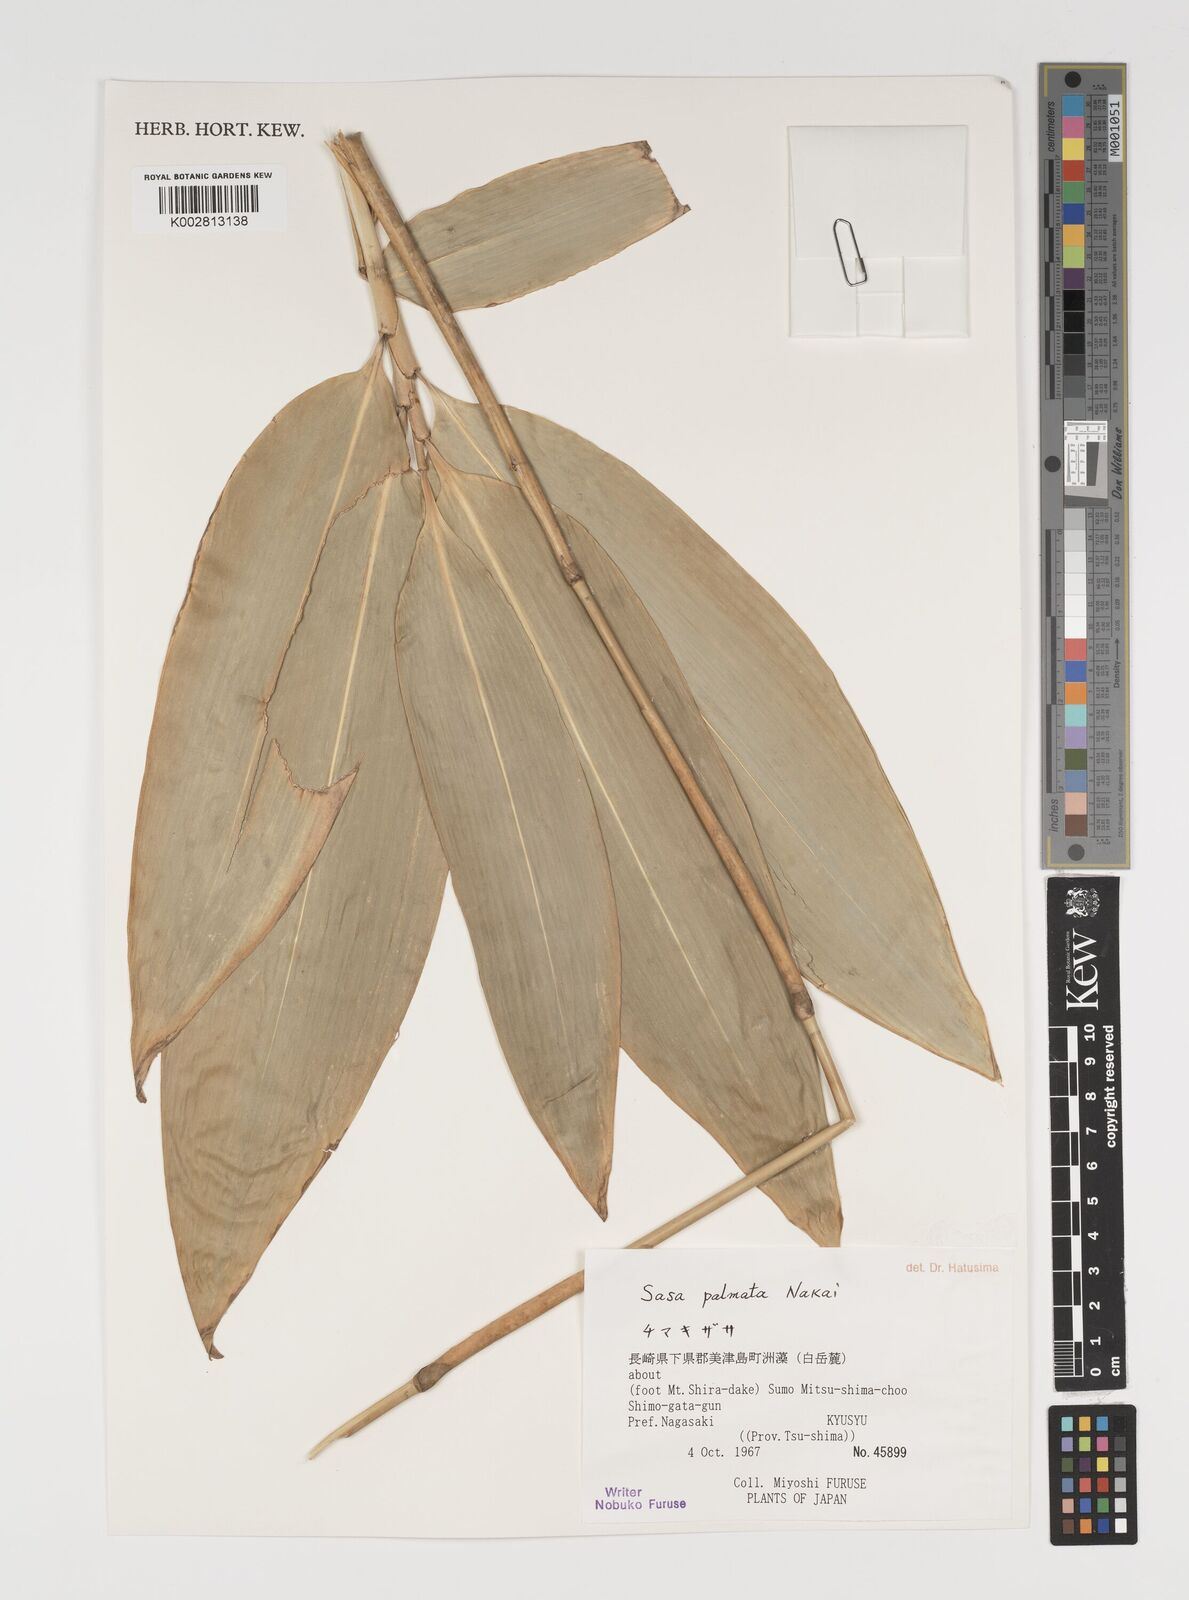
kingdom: Plantae
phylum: Tracheophyta
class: Liliopsida
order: Poales
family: Poaceae
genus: Sasa
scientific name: Sasa palmata
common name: Broad-leaved bamboo
